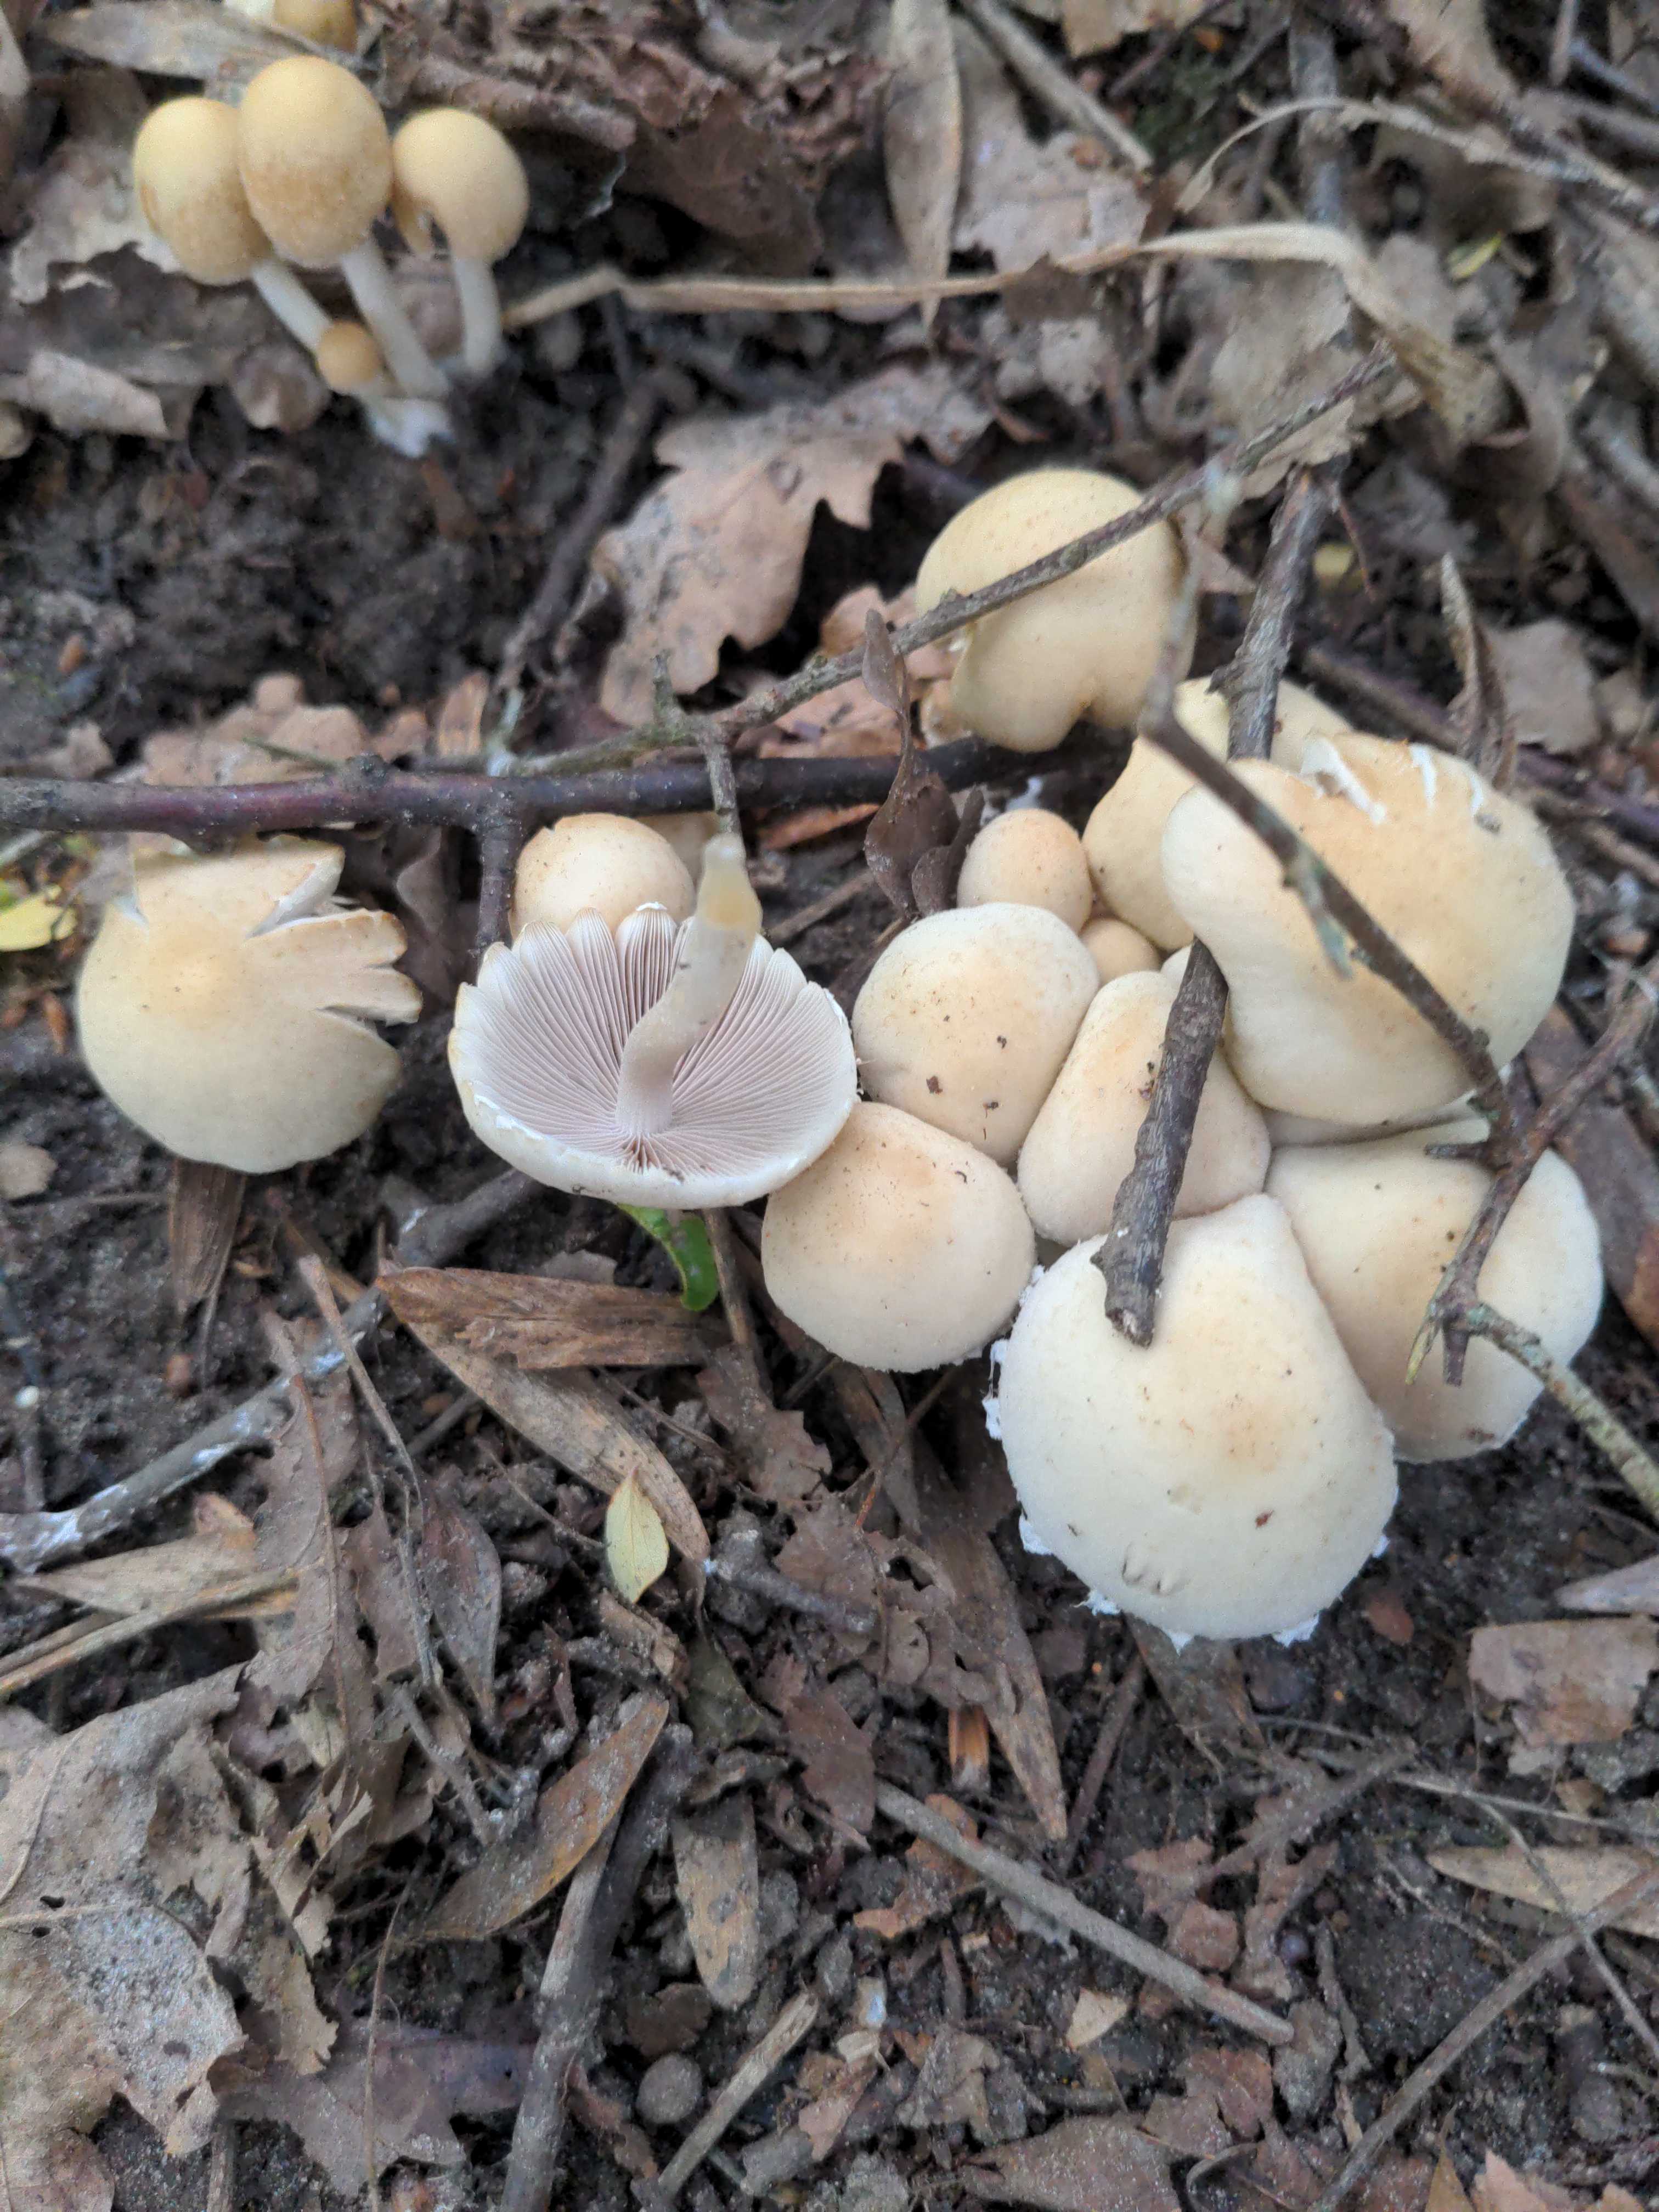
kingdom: Fungi
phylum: Basidiomycota
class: Agaricomycetes
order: Agaricales
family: Psathyrellaceae
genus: Candolleomyces
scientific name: Candolleomyces candolleanus
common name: Candolles mørkhat
